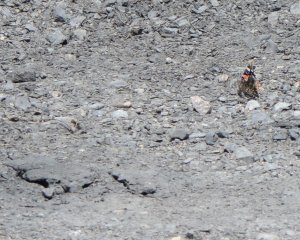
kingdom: Animalia
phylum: Arthropoda
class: Insecta
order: Lepidoptera
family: Nymphalidae
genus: Vanessa
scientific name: Vanessa atalanta
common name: Red Admiral
